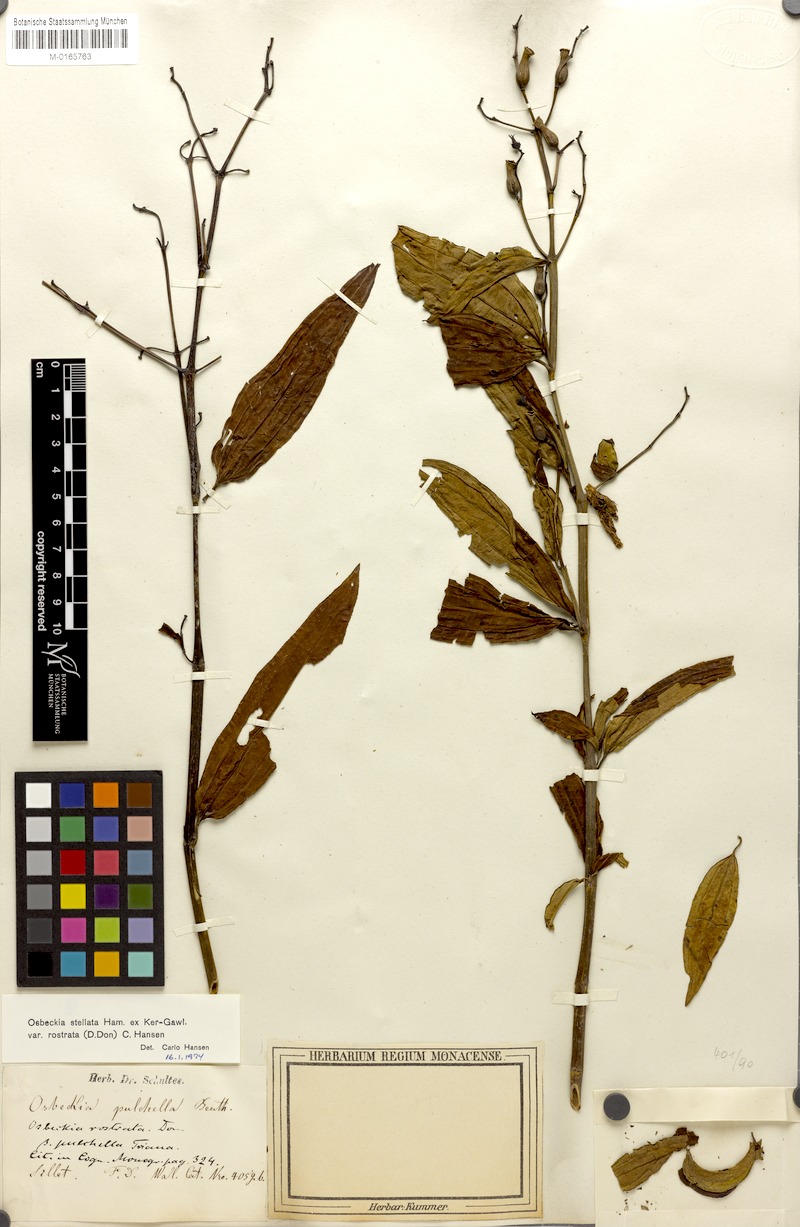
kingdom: Plantae
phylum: Tracheophyta
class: Magnoliopsida
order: Myrtales
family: Melastomataceae
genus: Osbeckia
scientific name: Osbeckia rostrata
